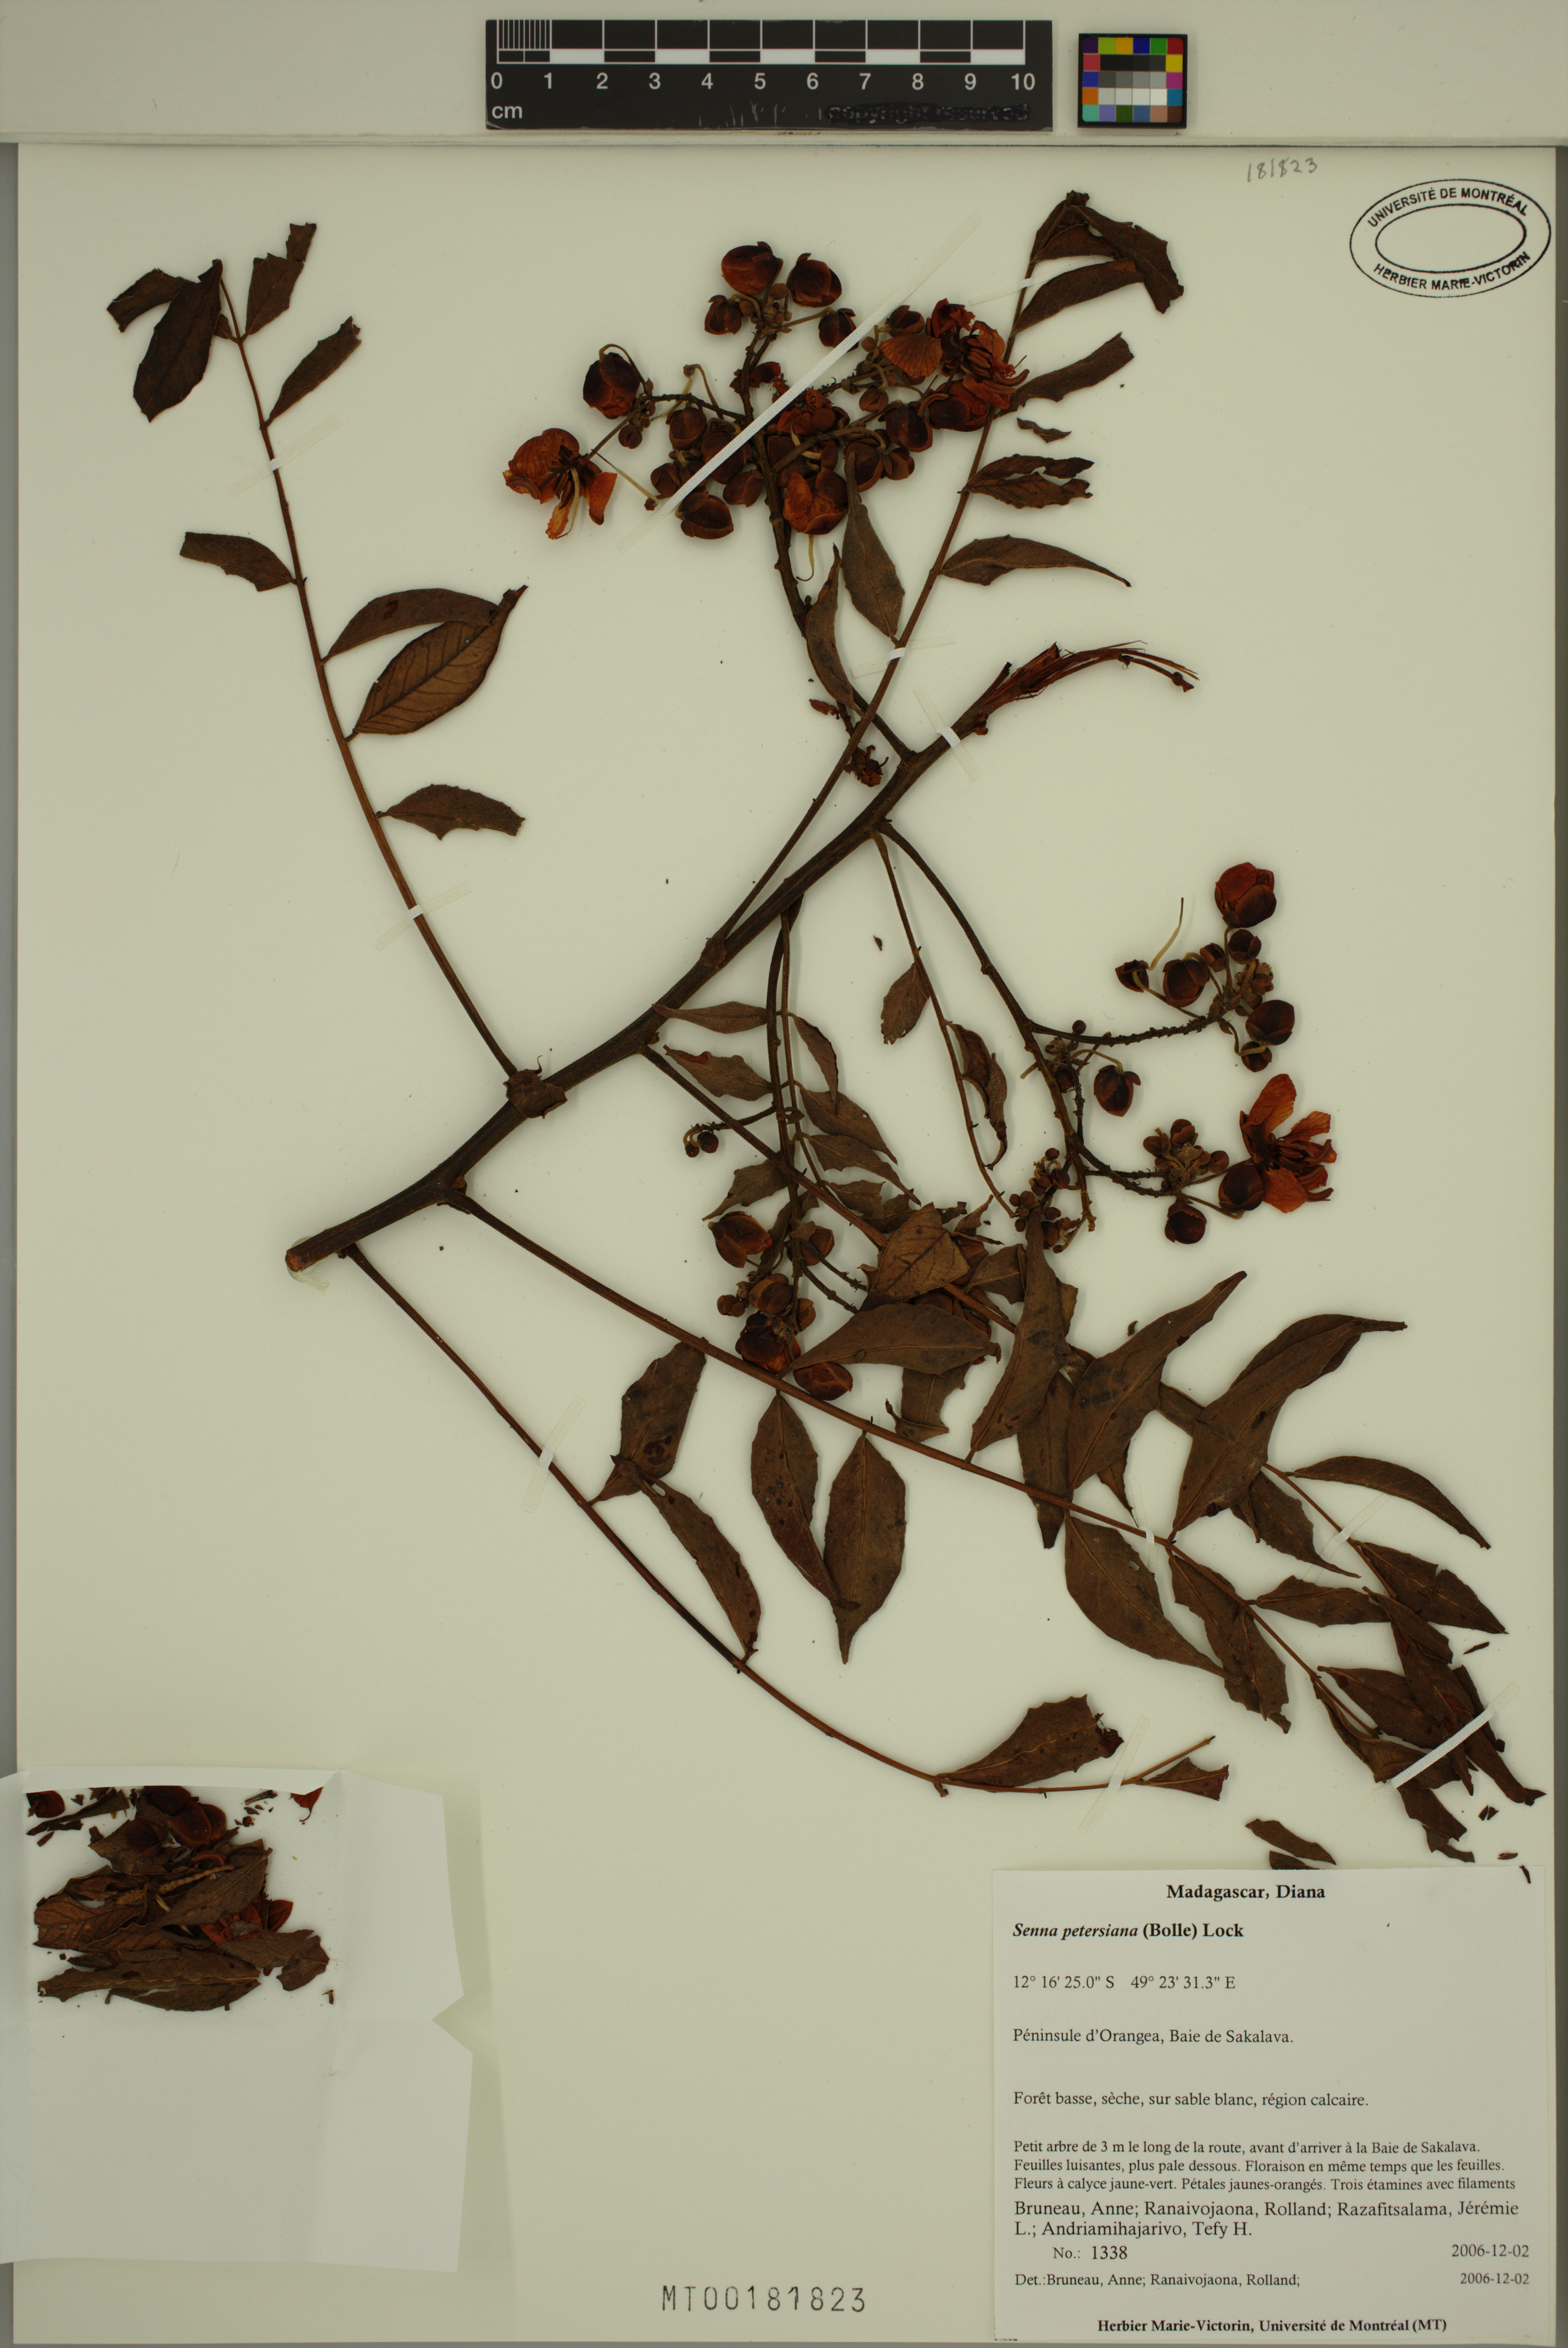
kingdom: Plantae
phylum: Tracheophyta
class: Magnoliopsida
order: Fabales
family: Fabaceae
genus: Senna
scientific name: Senna petersiana
